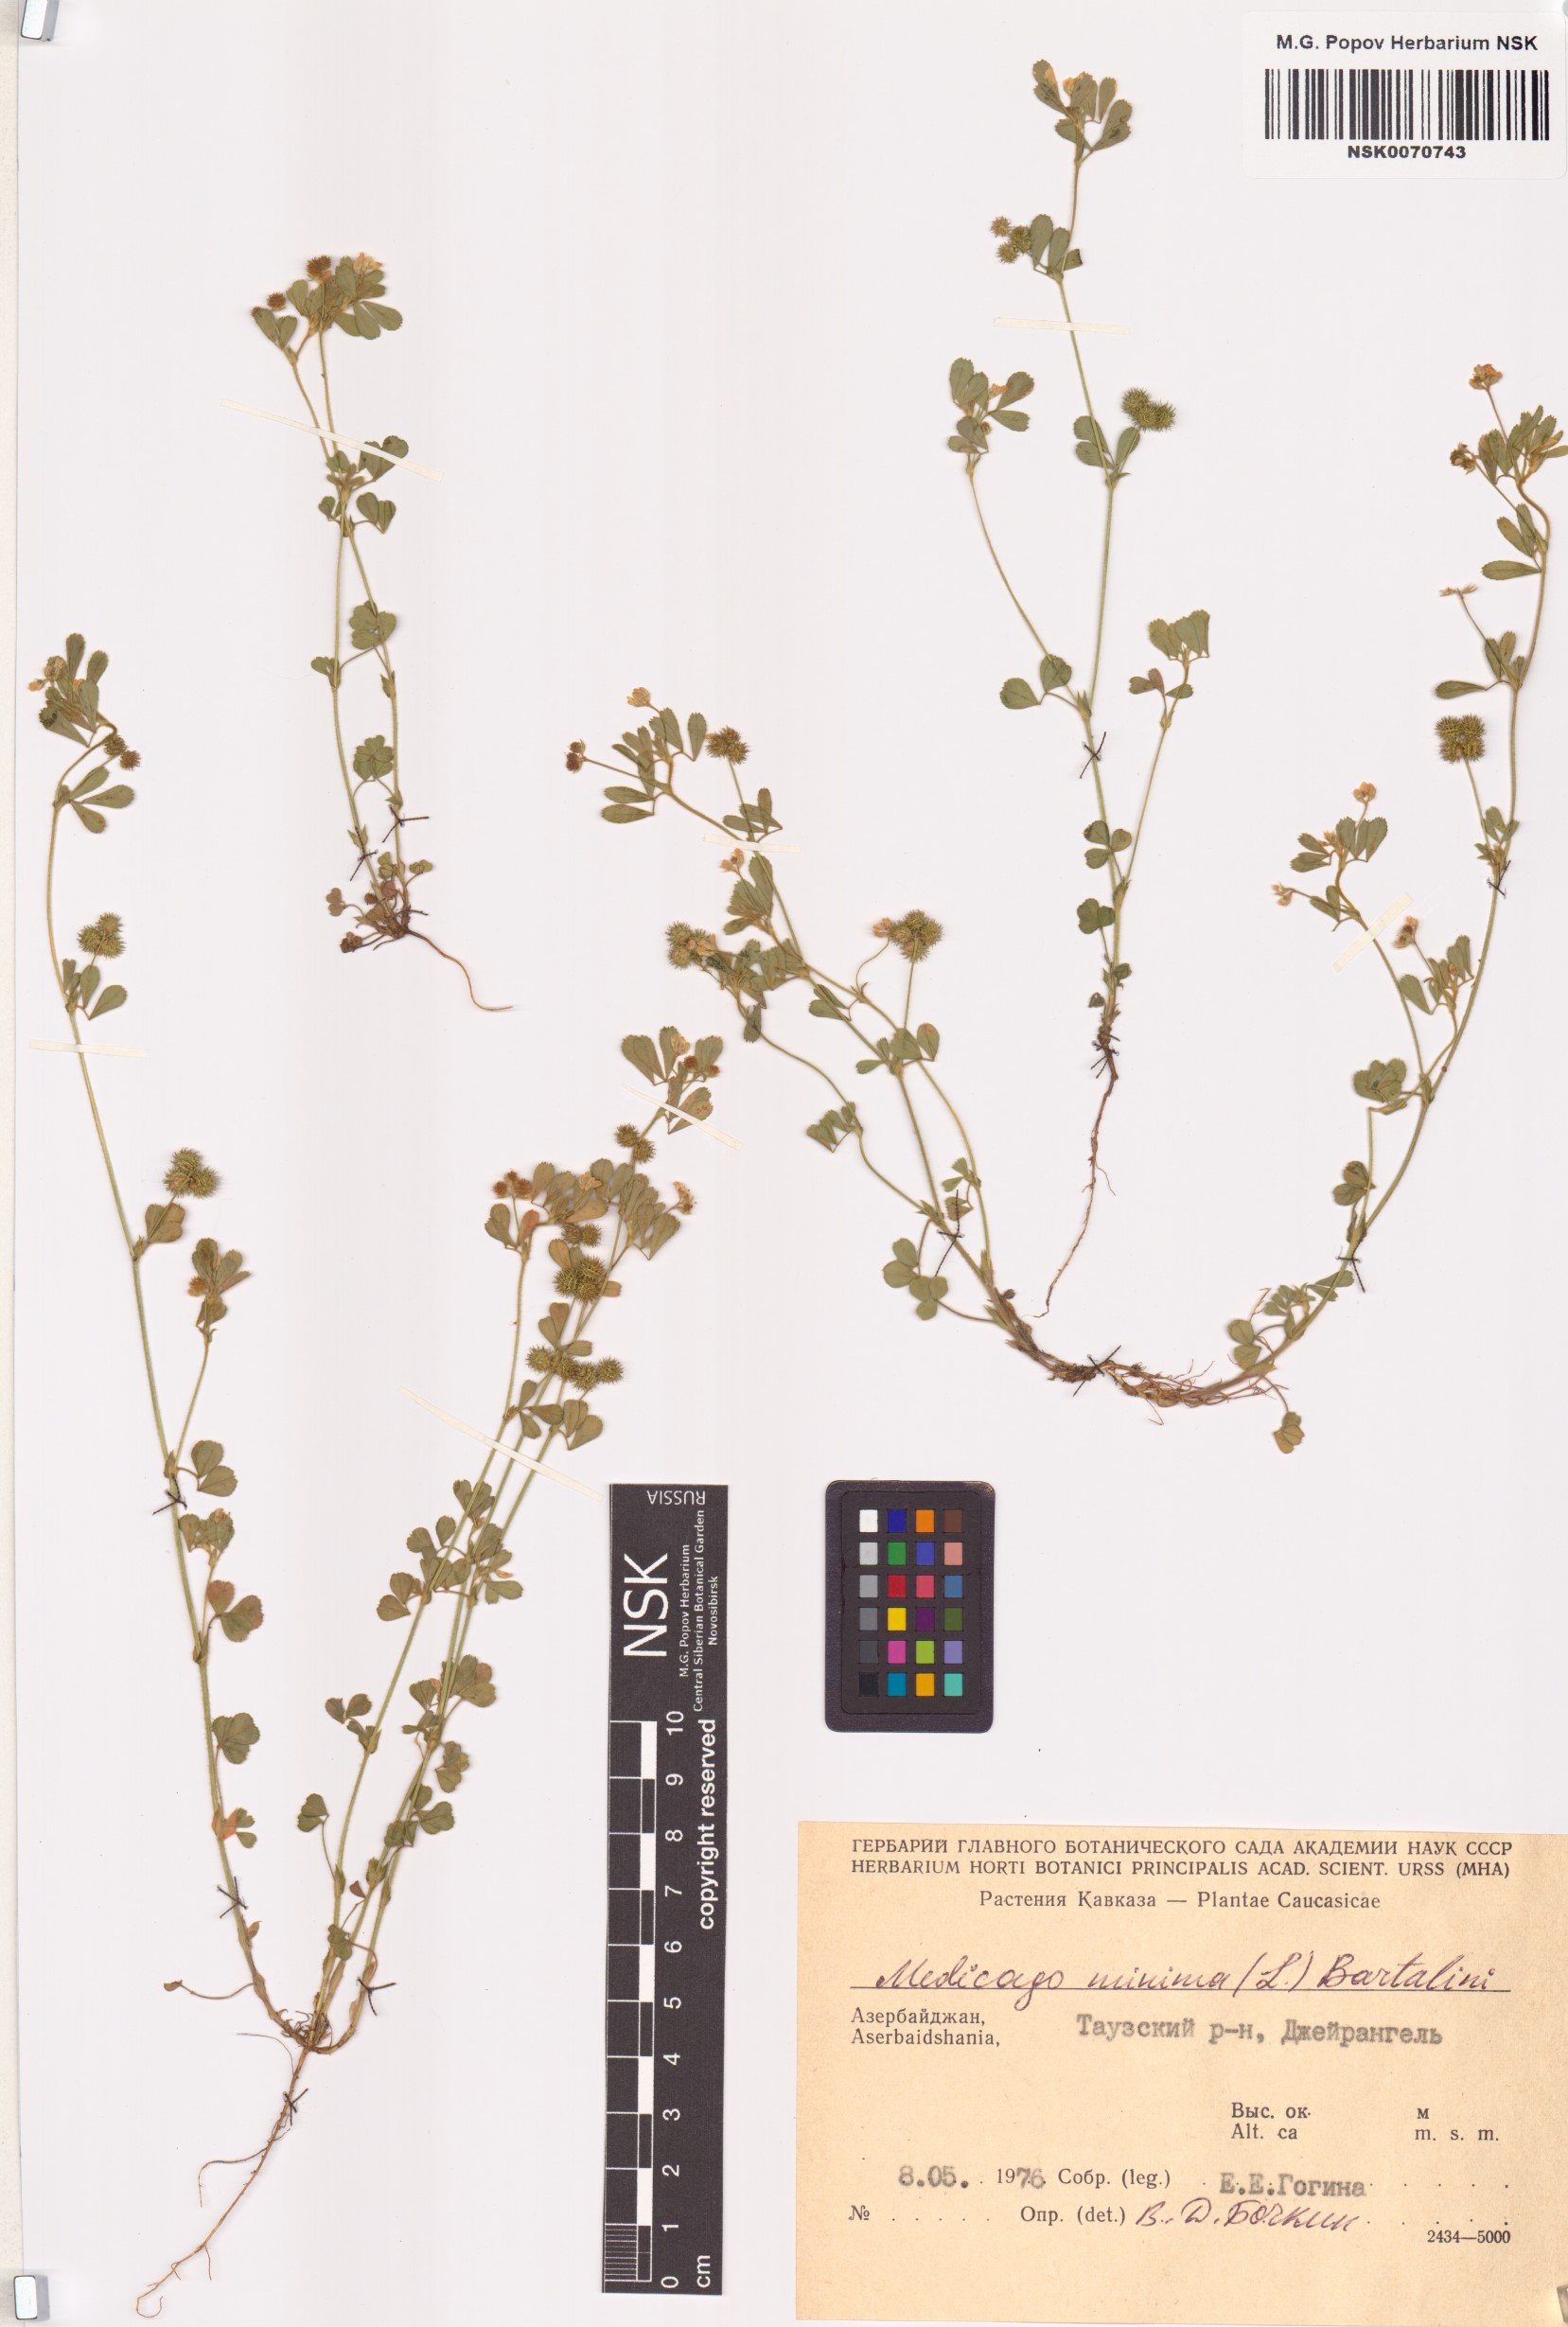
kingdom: Plantae
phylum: Tracheophyta
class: Magnoliopsida
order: Fabales
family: Fabaceae
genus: Medicago
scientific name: Medicago minima
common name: Little bur-clover
